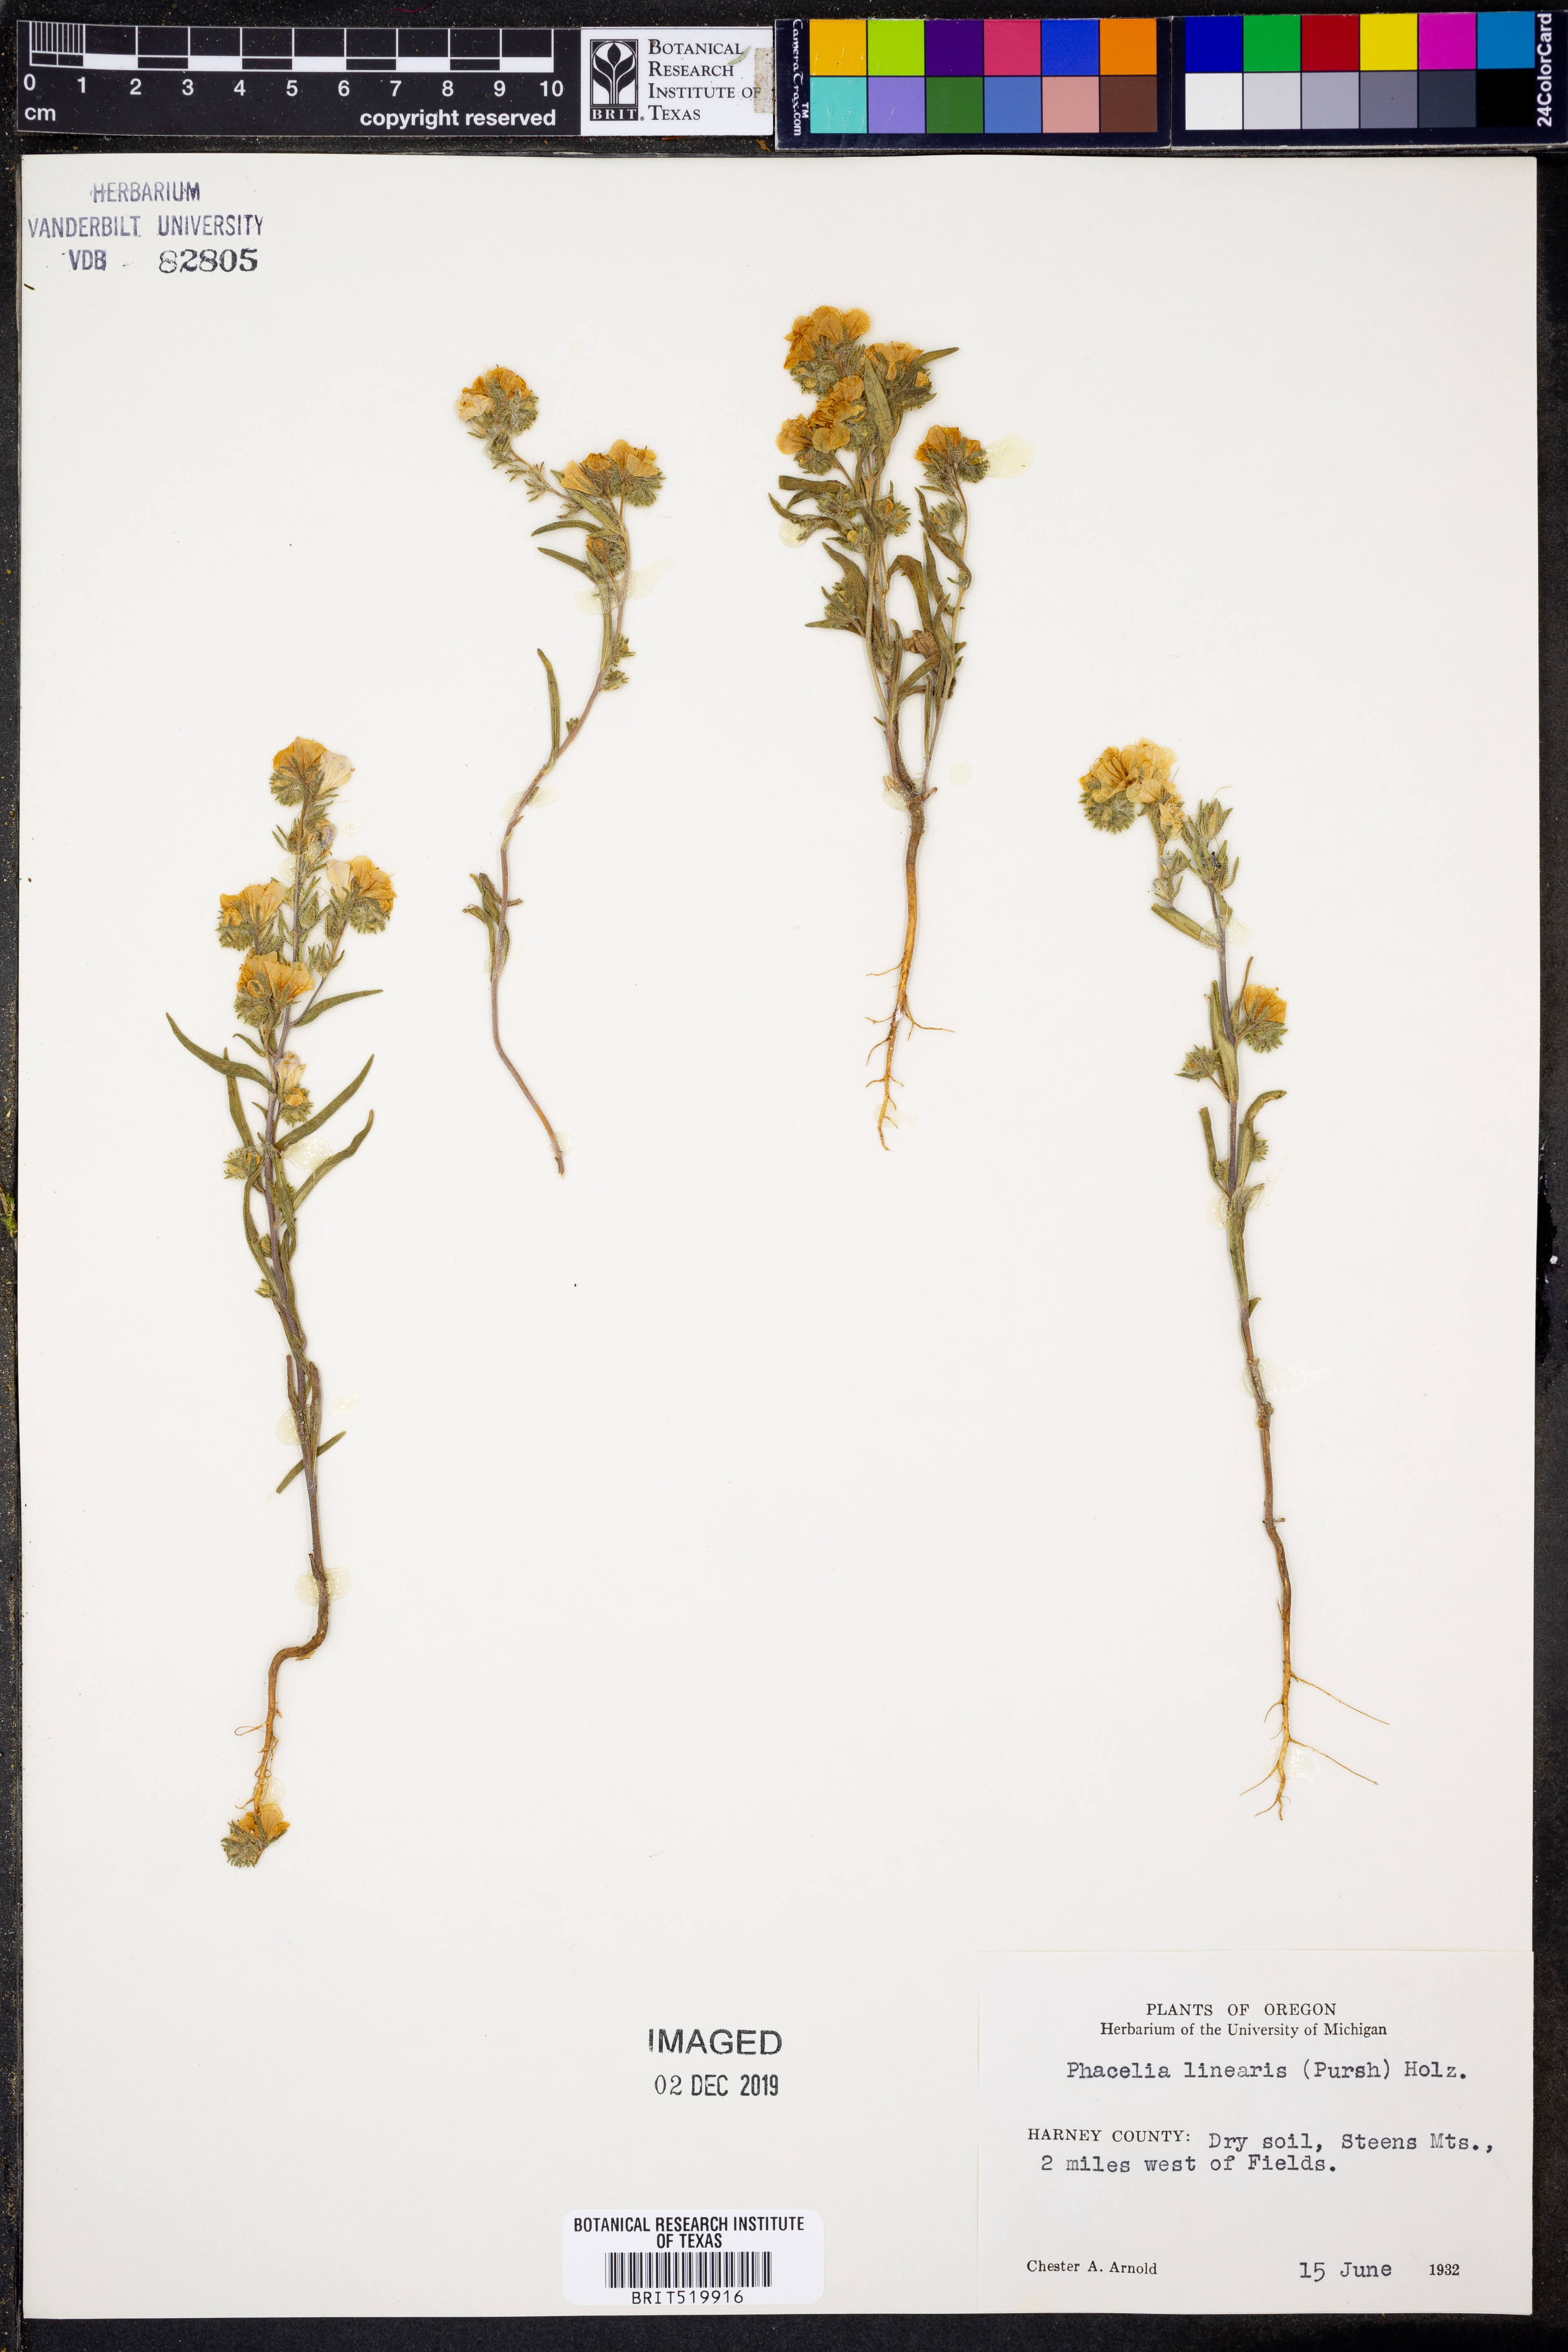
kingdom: Plantae
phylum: Tracheophyta
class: Magnoliopsida
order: Boraginales
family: Hydrophyllaceae
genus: Phacelia
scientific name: Phacelia linearis
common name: Linear-leaved phacelia
